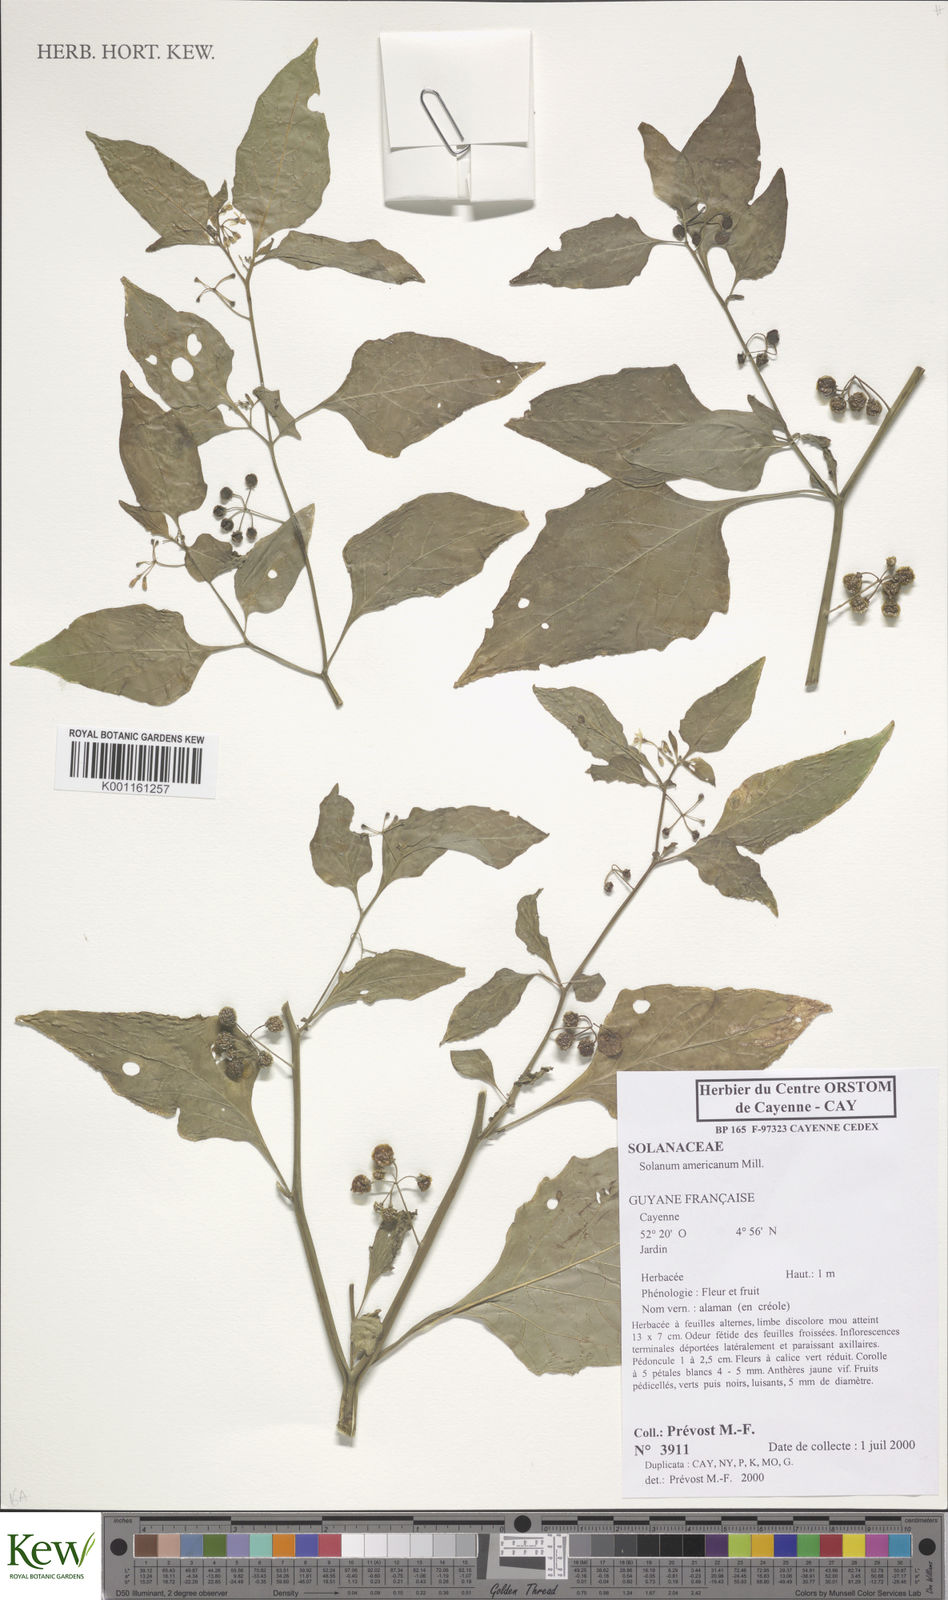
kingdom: Plantae
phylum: Tracheophyta
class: Magnoliopsida
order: Solanales
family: Solanaceae
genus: Solanum
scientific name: Solanum americanum
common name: American black nightshade
